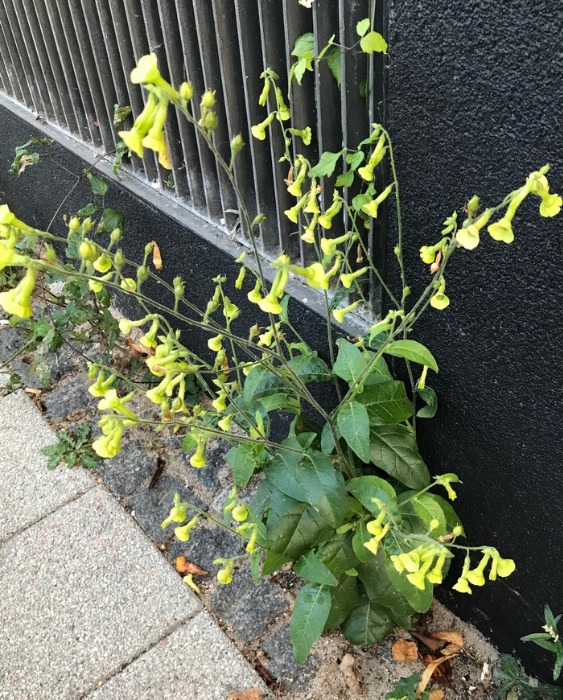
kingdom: Plantae
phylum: Tracheophyta
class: Magnoliopsida
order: Solanales
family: Solanaceae
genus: Nicotiana
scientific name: Nicotiana langsdorffii
